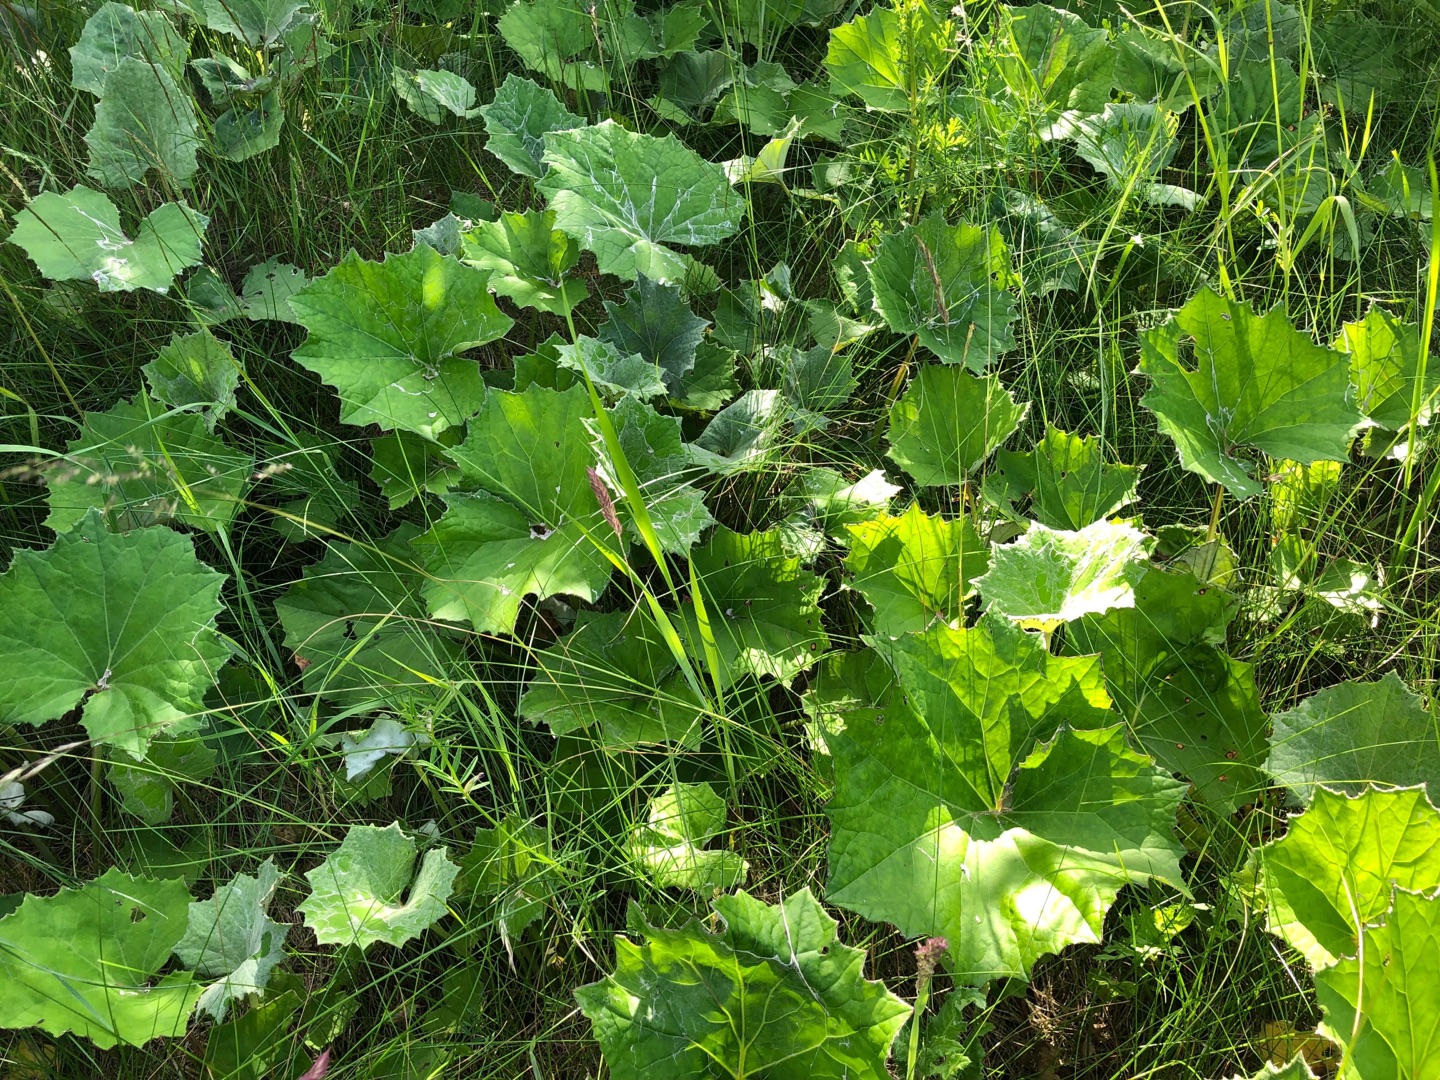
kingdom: Plantae
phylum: Tracheophyta
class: Magnoliopsida
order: Asterales
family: Asteraceae
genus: Tussilago
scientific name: Tussilago farfara
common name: Følfod
